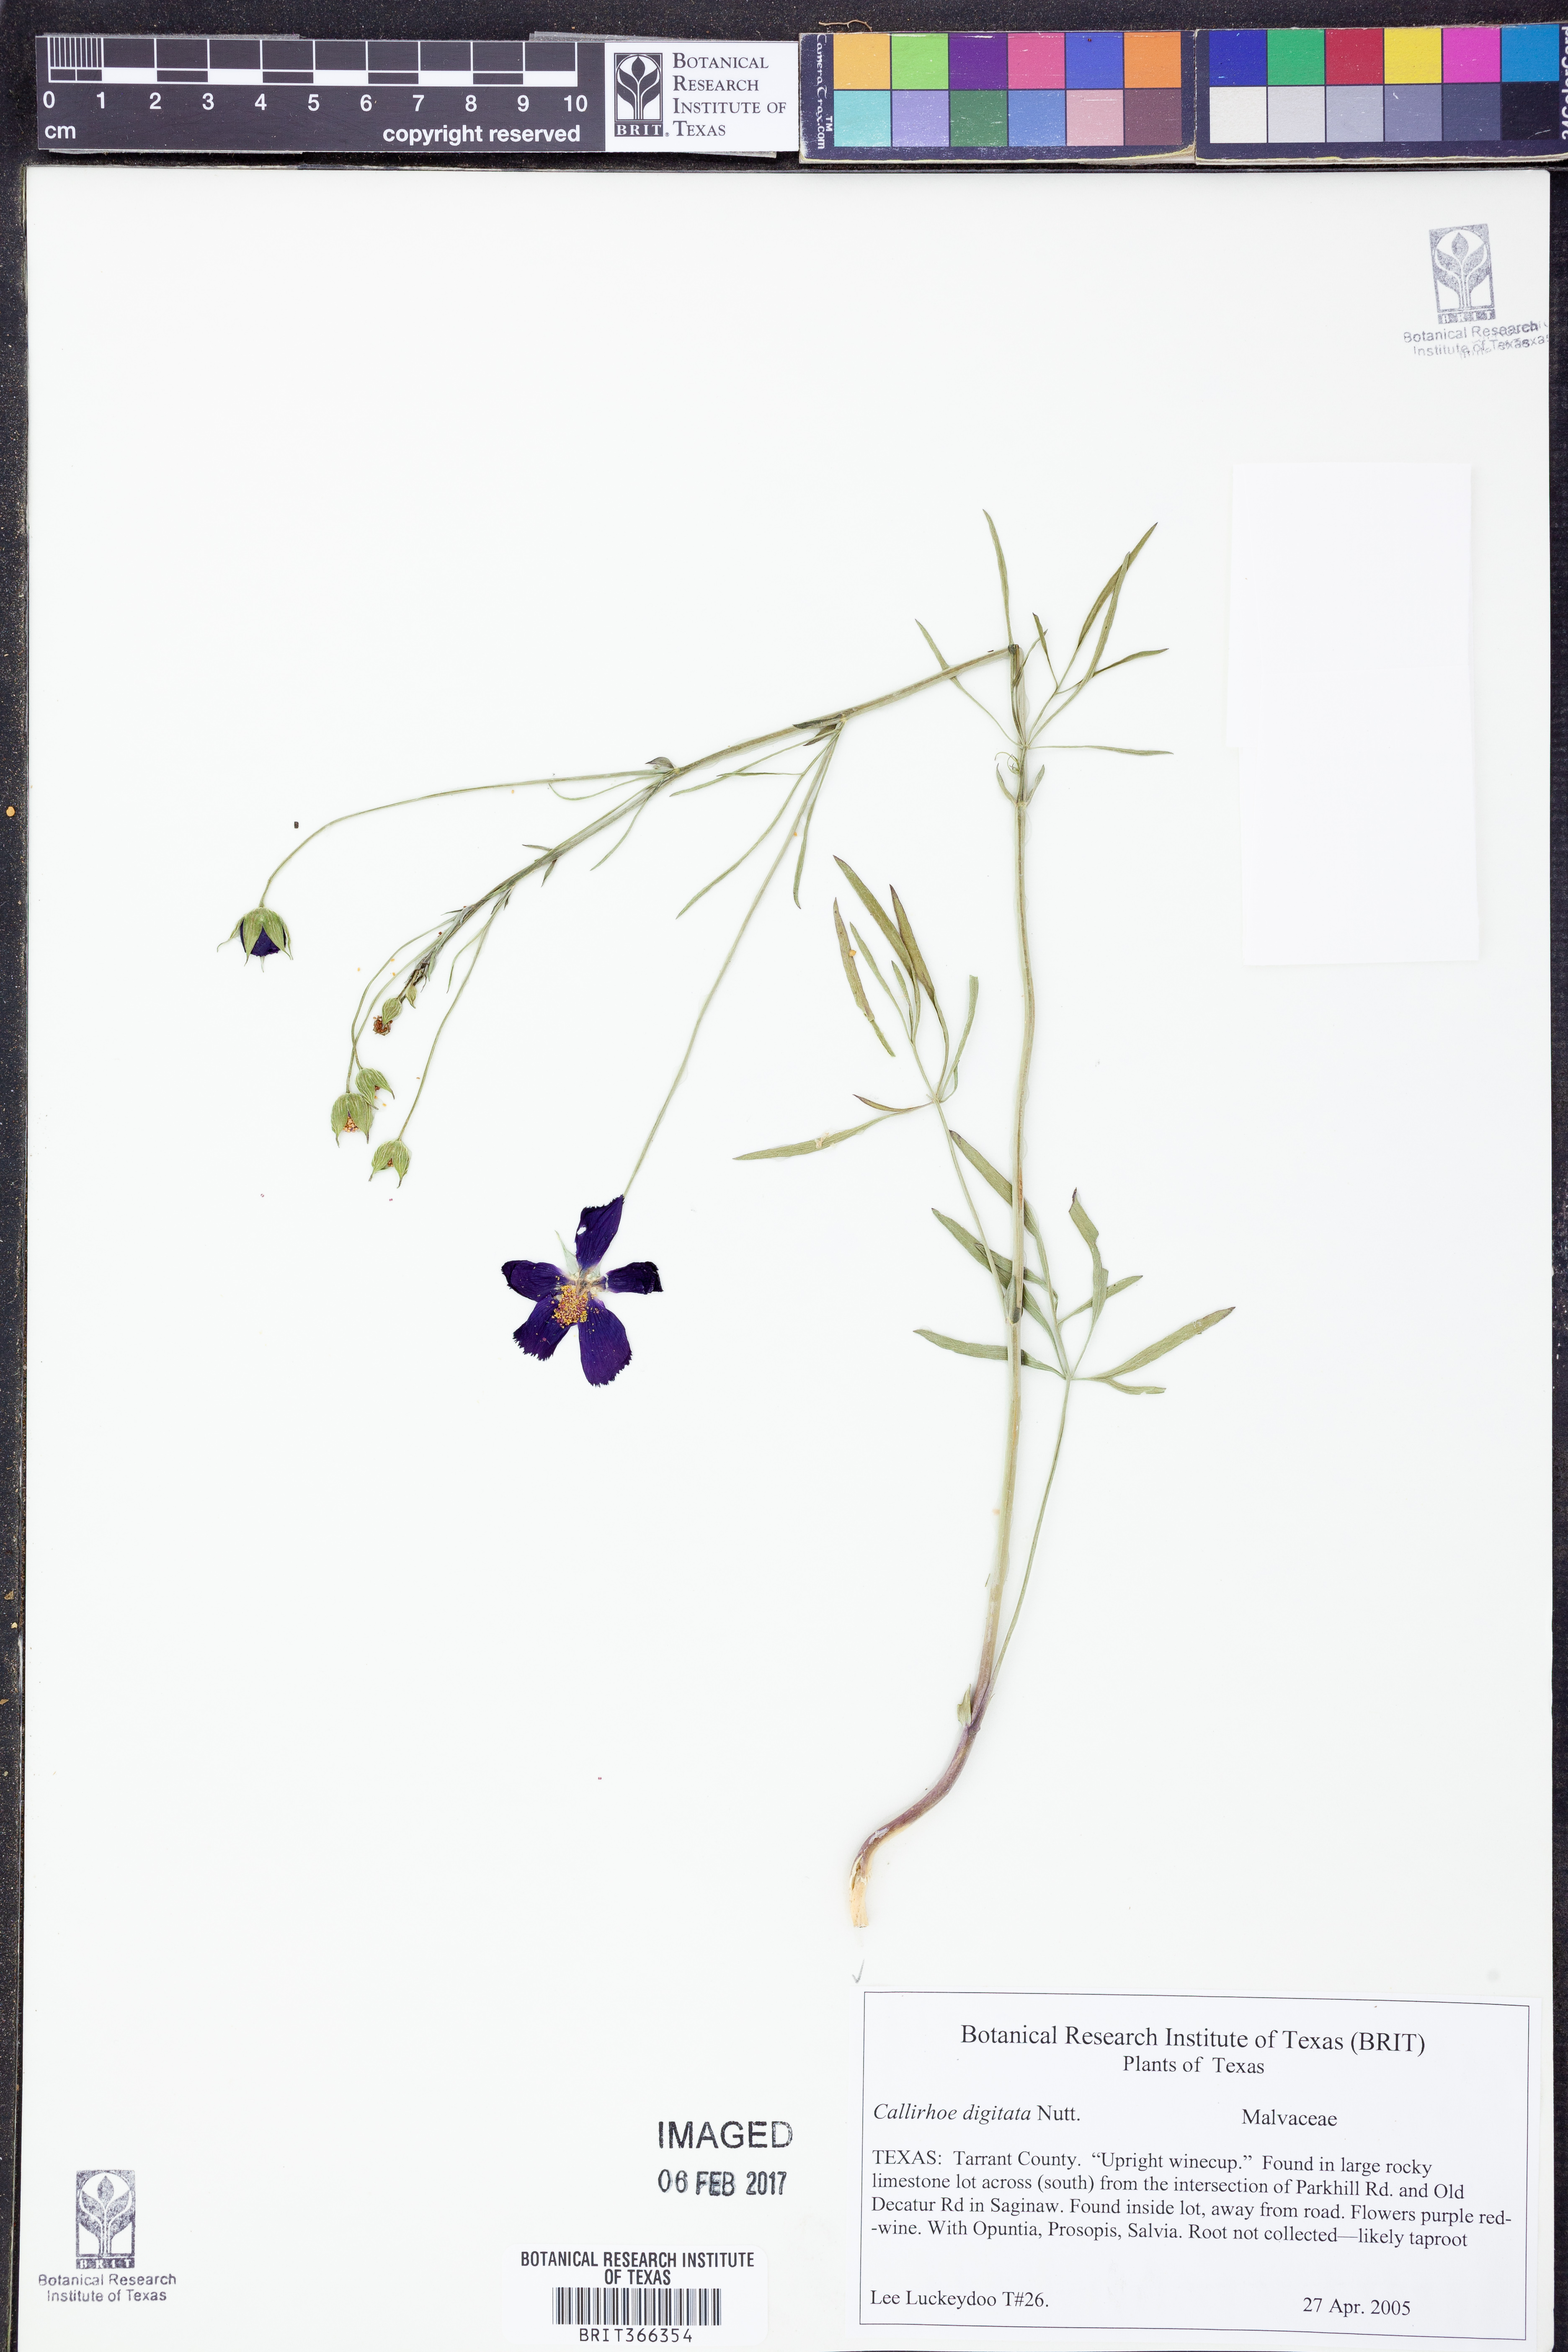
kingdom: Plantae
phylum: Tracheophyta
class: Magnoliopsida
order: Malvales
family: Malvaceae
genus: Callirhoe
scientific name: Callirhoe digitata
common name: Finger poppy-mallow
